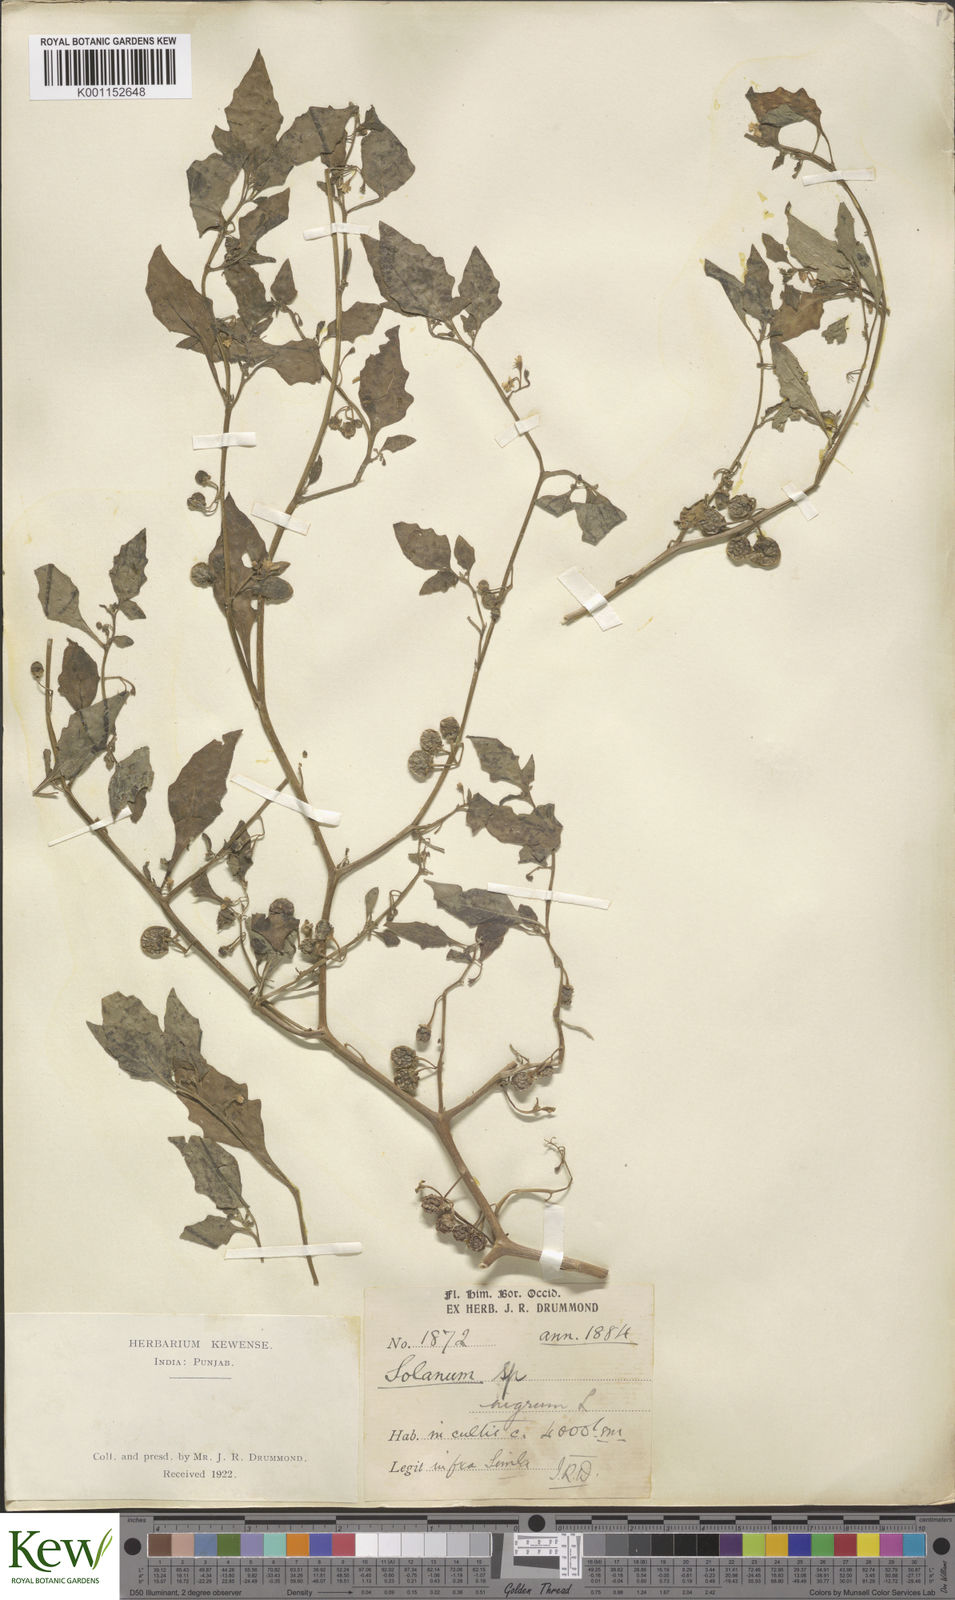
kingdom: Plantae
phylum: Tracheophyta
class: Magnoliopsida
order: Solanales
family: Solanaceae
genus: Solanum
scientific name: Solanum nigrum
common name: Black nightshade
